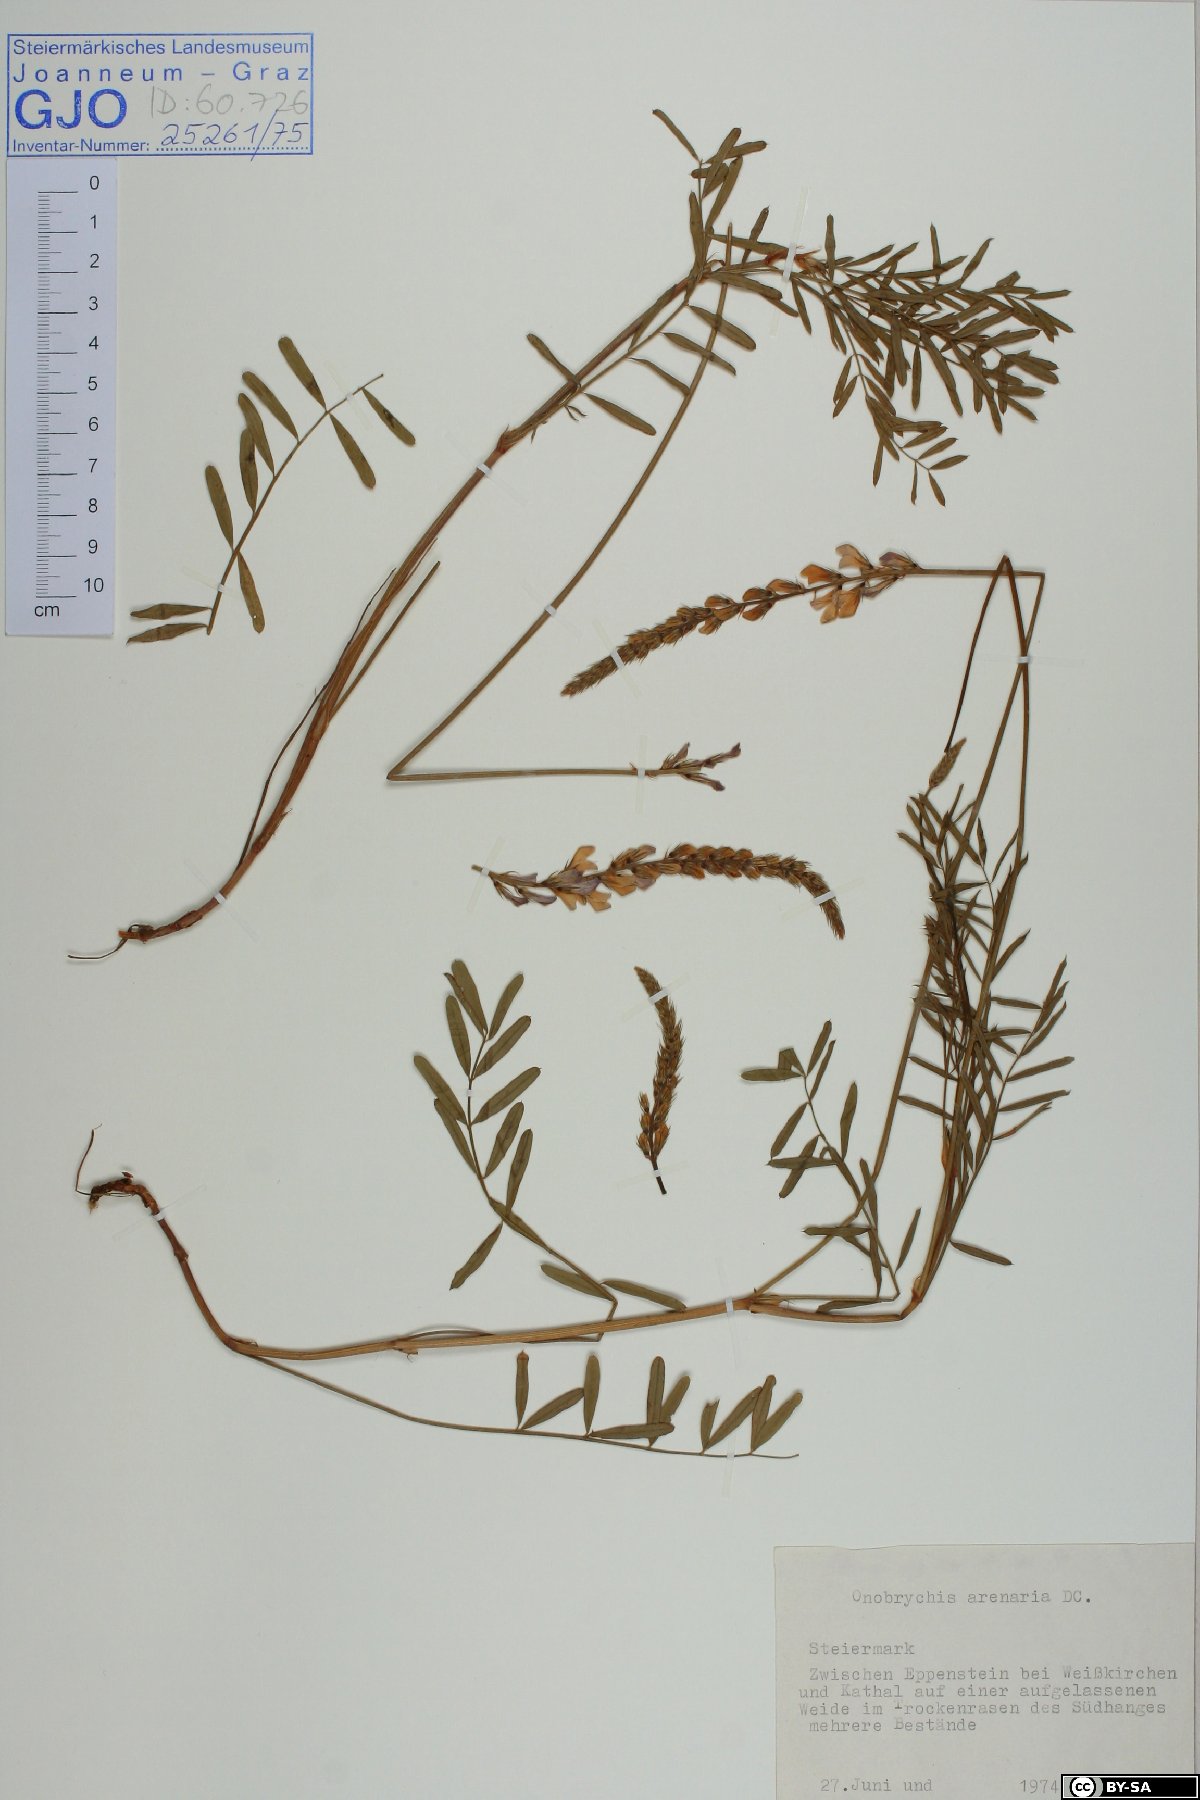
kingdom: Plantae
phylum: Tracheophyta
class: Magnoliopsida
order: Fabales
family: Fabaceae
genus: Onobrychis
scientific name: Onobrychis arenaria
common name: Sand esparcet
